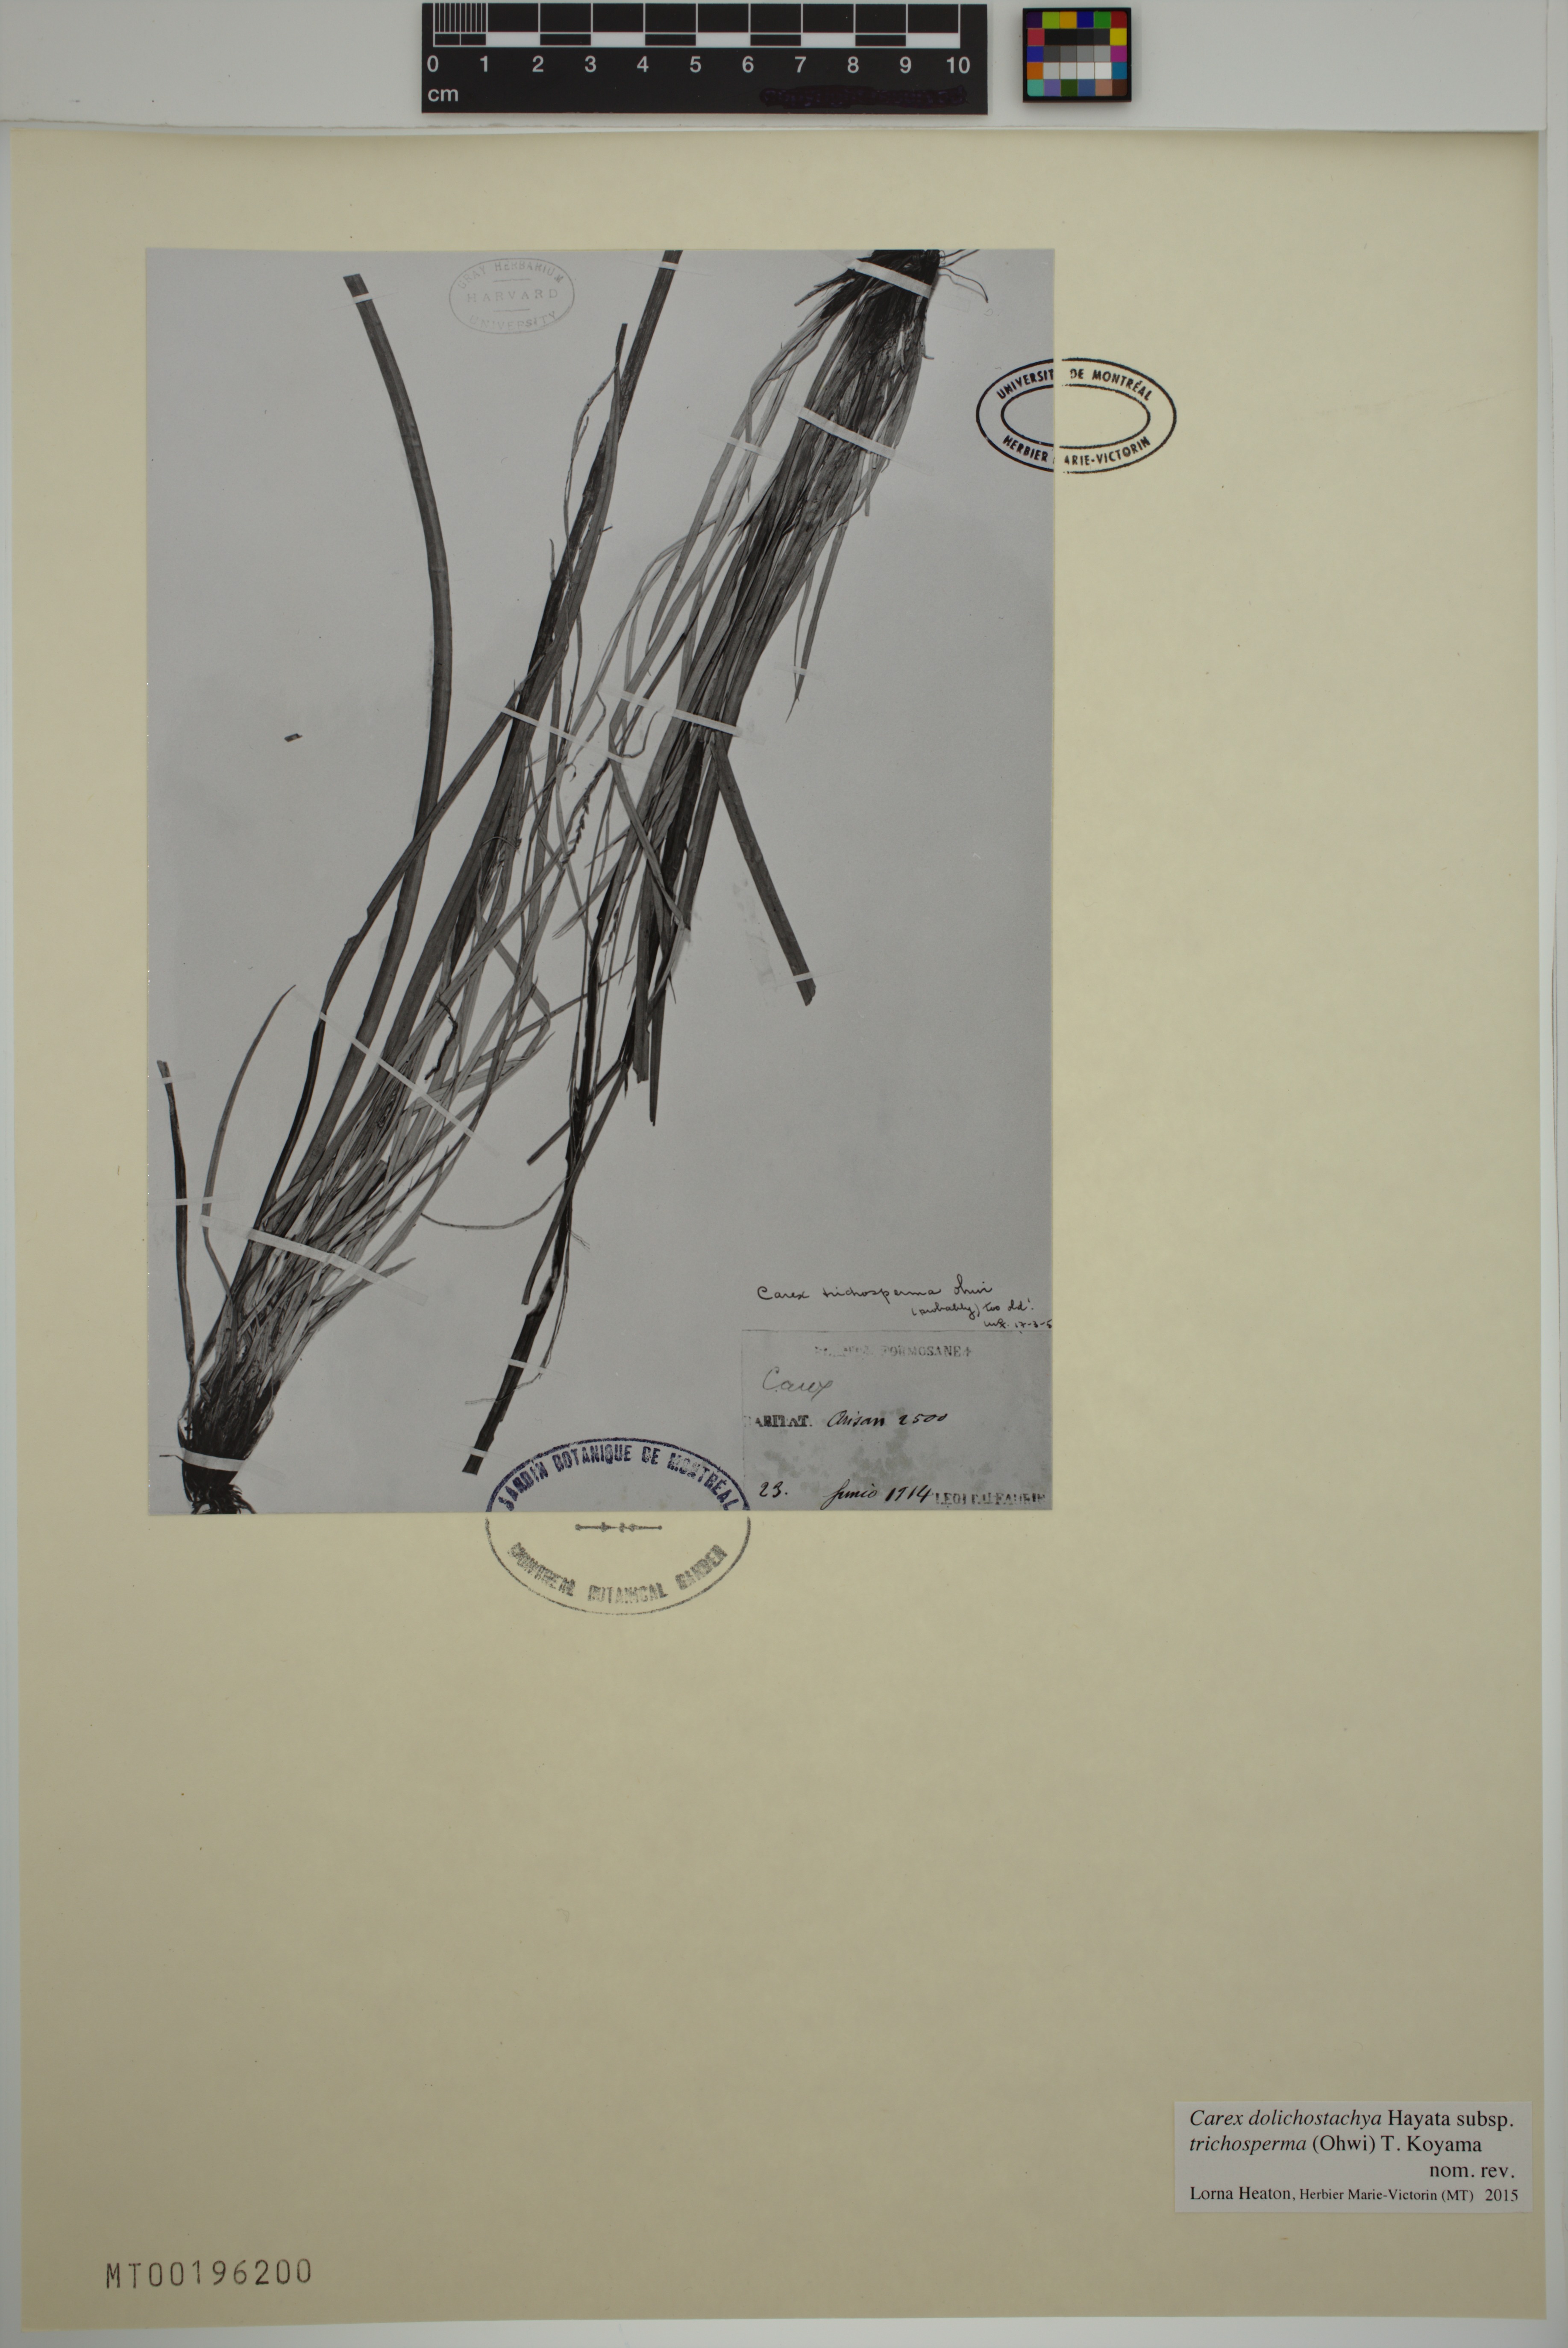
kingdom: Plantae
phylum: Tracheophyta
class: Liliopsida
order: Poales
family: Cyperaceae
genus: Carex
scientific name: Carex dolichostachya
